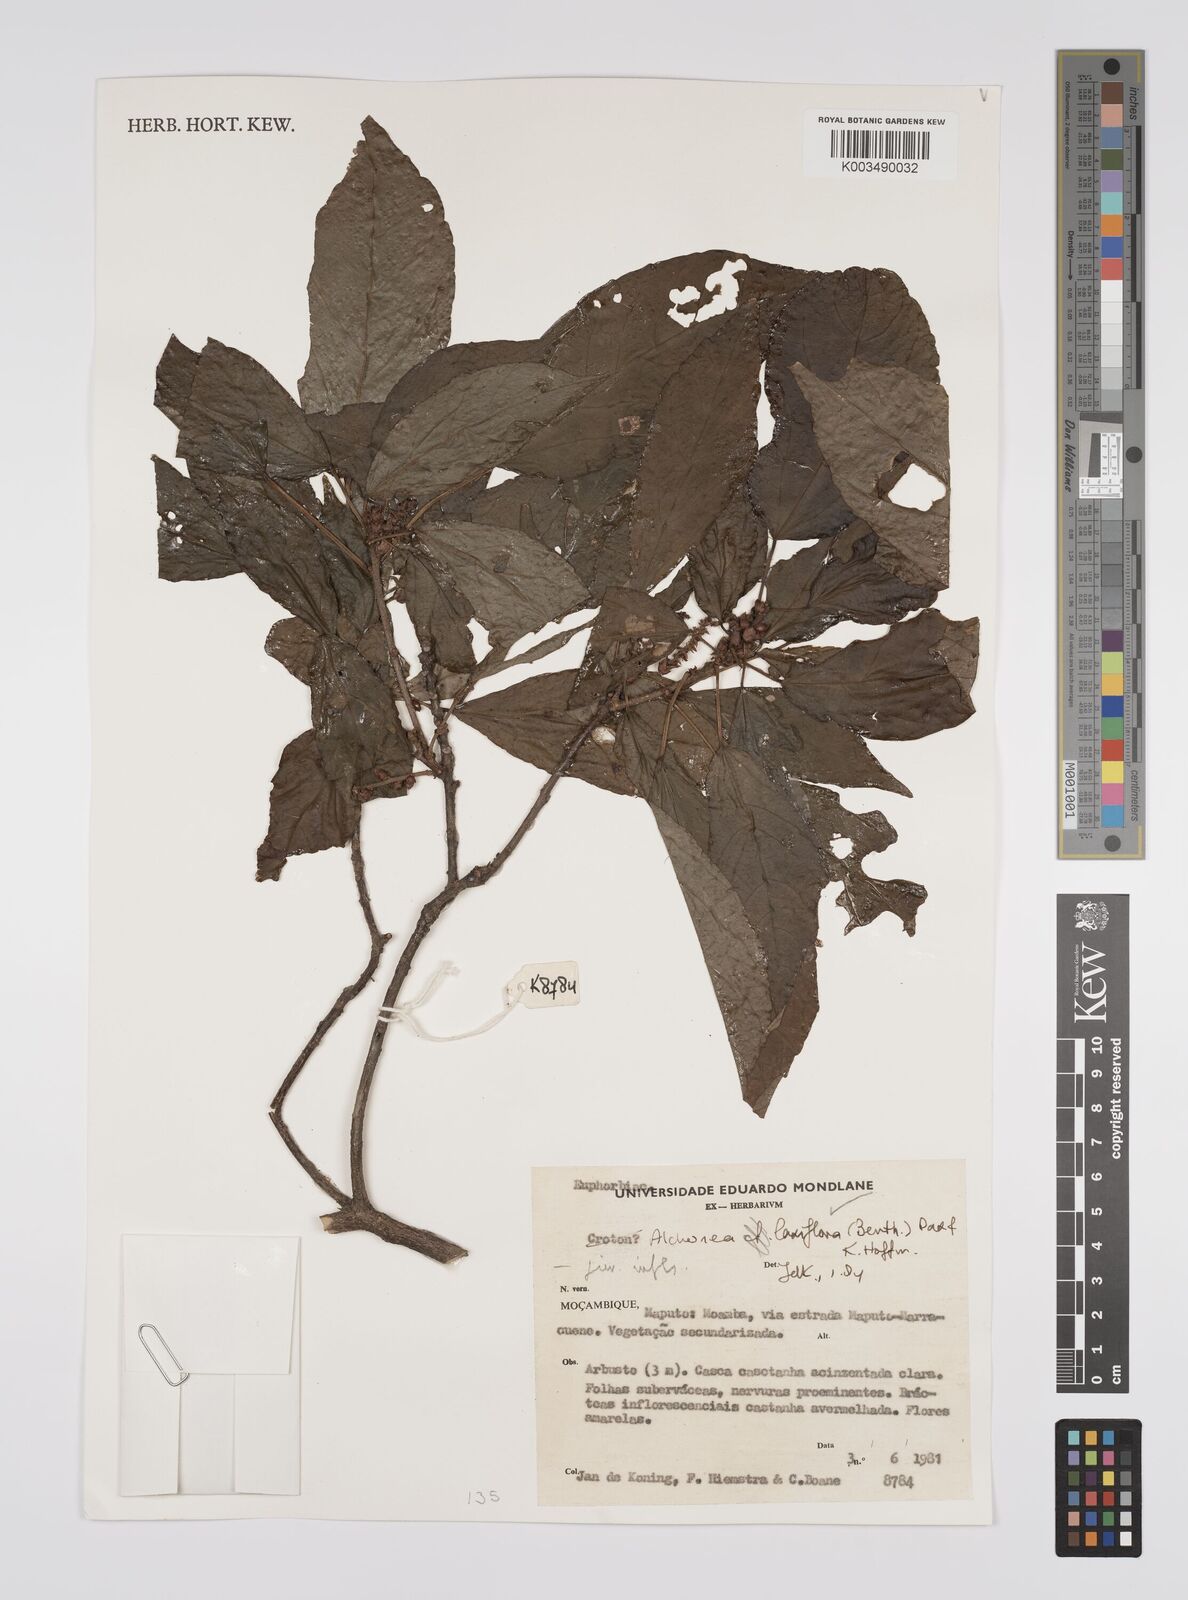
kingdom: Plantae
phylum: Tracheophyta
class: Magnoliopsida
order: Malpighiales
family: Euphorbiaceae
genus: Alchornea
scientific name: Alchornea laxiflora
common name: Lowveld bead-string
